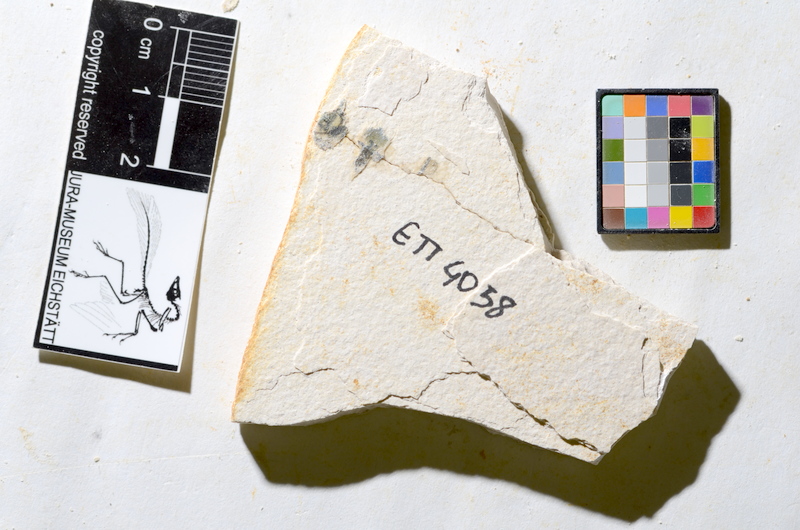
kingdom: Animalia
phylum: Chordata
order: Salmoniformes
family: Orthogonikleithridae
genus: Orthogonikleithrus
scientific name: Orthogonikleithrus hoelli
